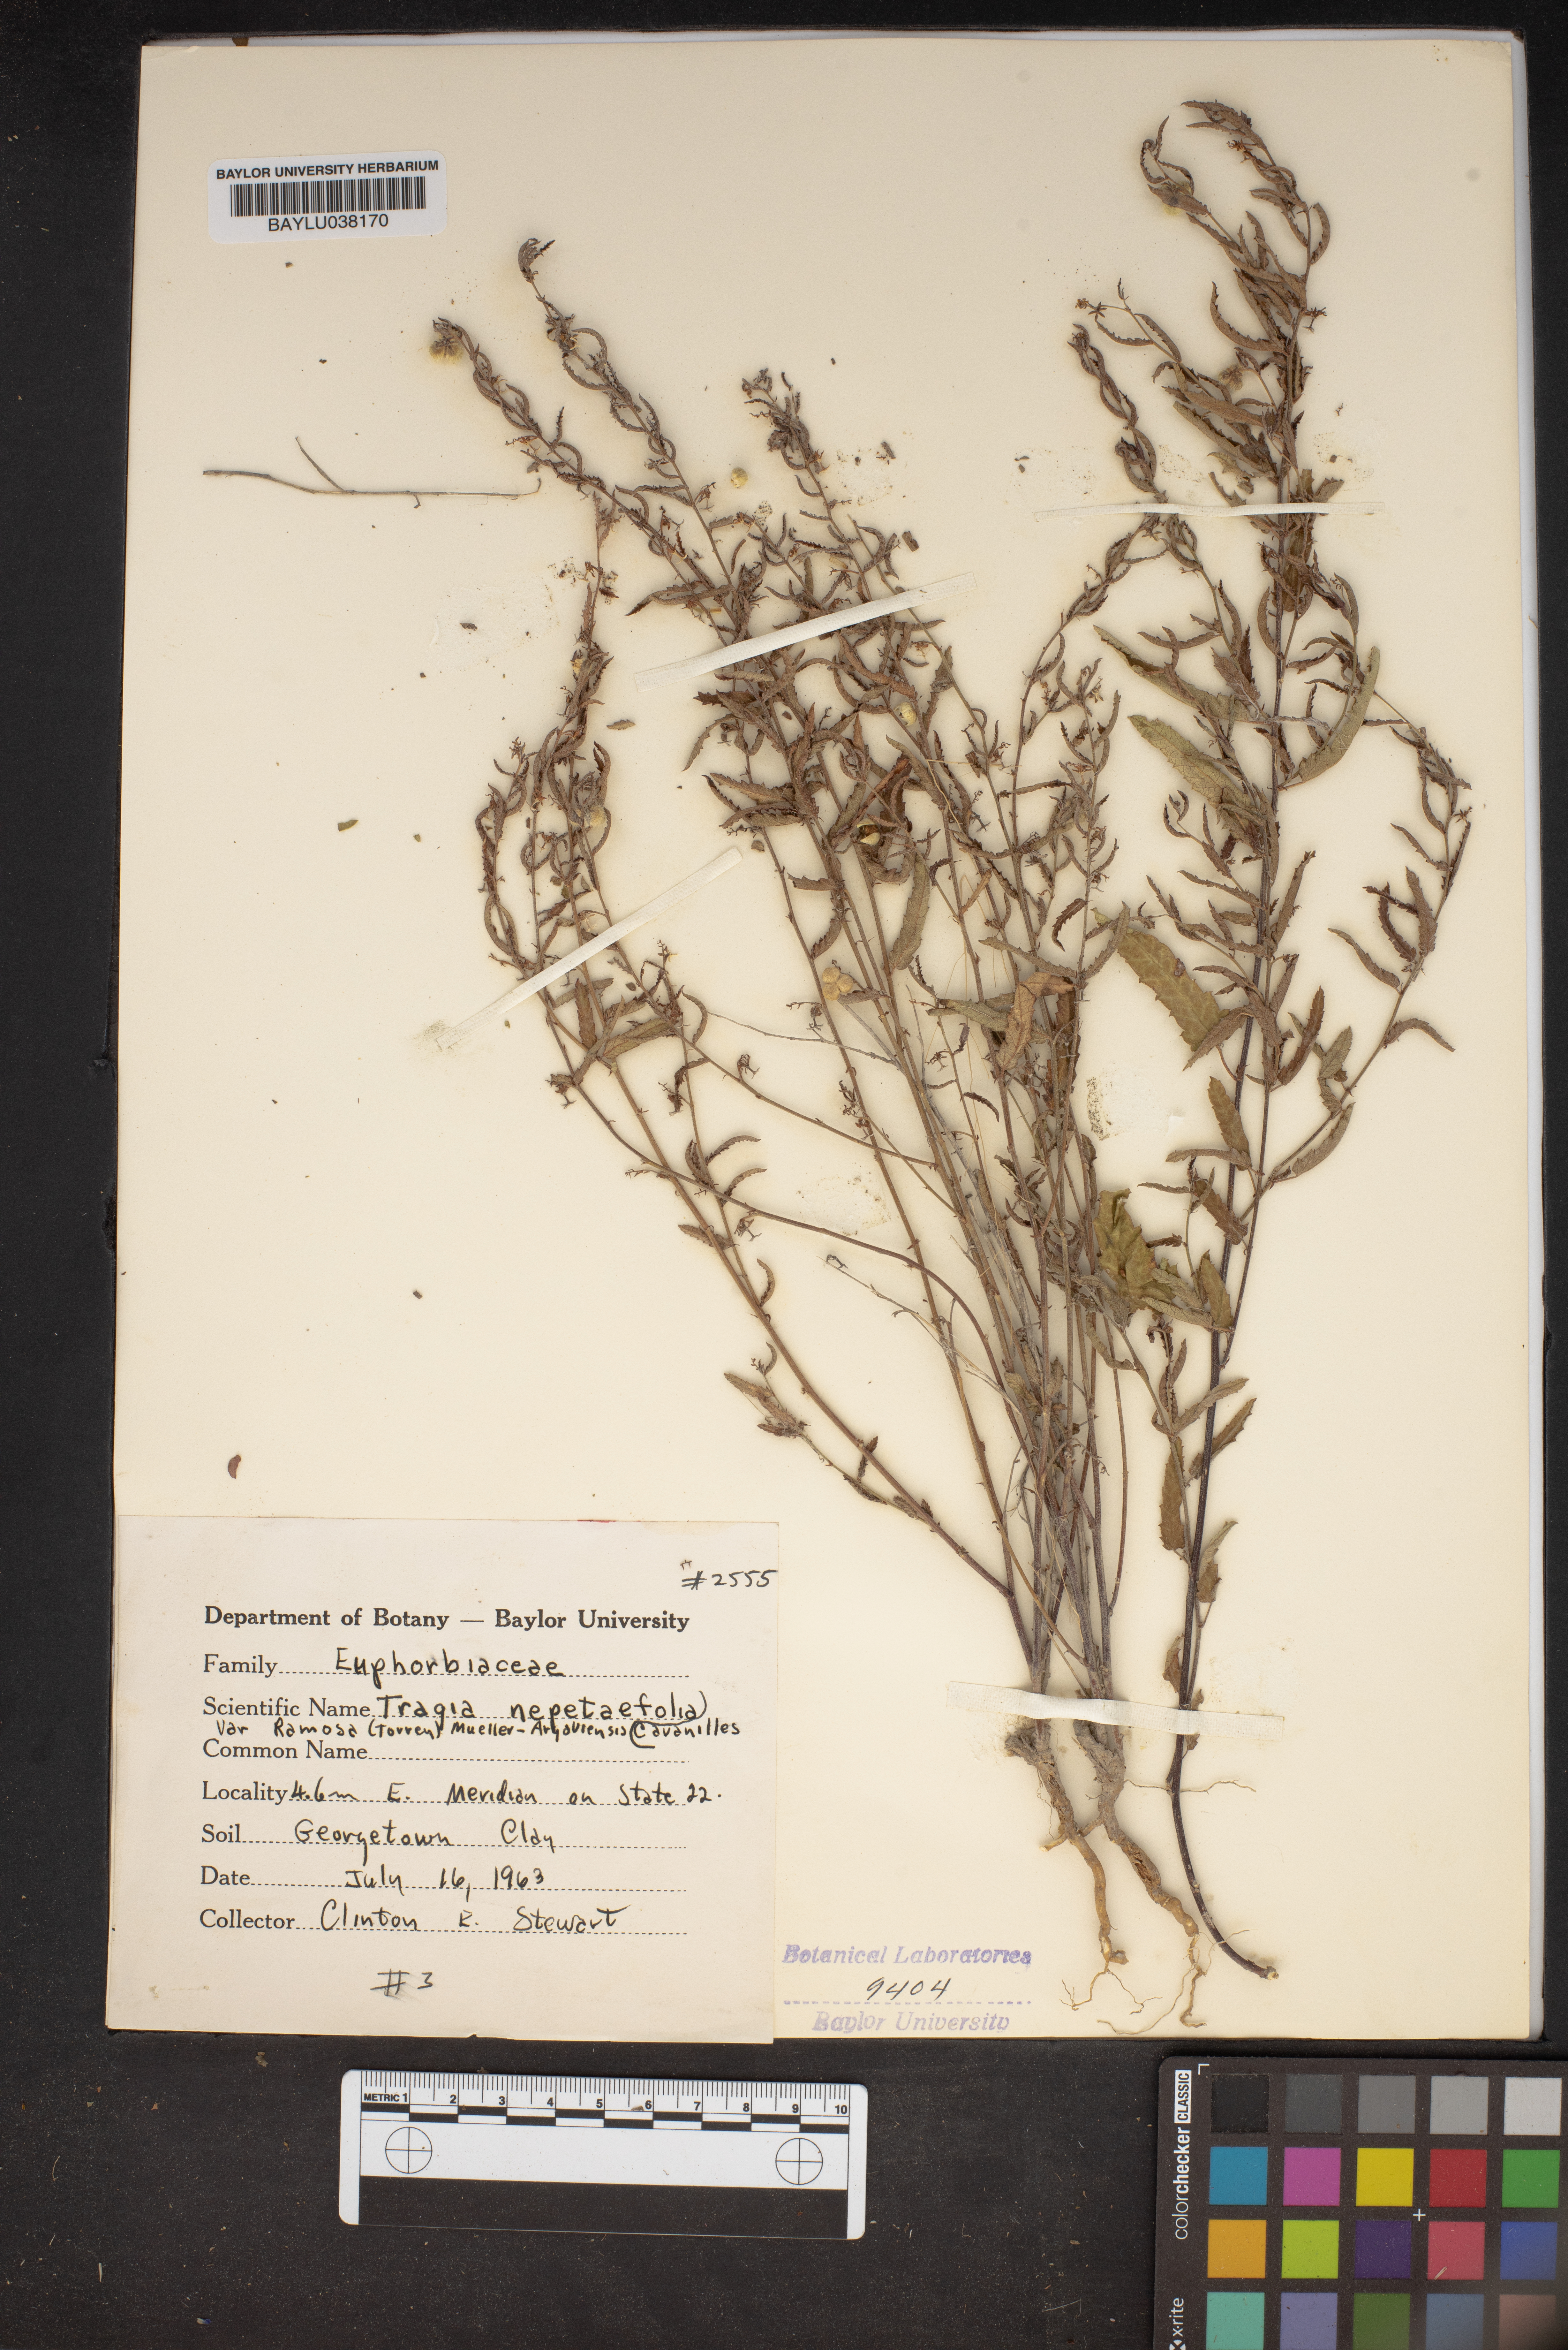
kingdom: Plantae
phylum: Tracheophyta
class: Magnoliopsida
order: Malpighiales
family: Euphorbiaceae
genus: Tragia
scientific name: Tragia nepetifolia
